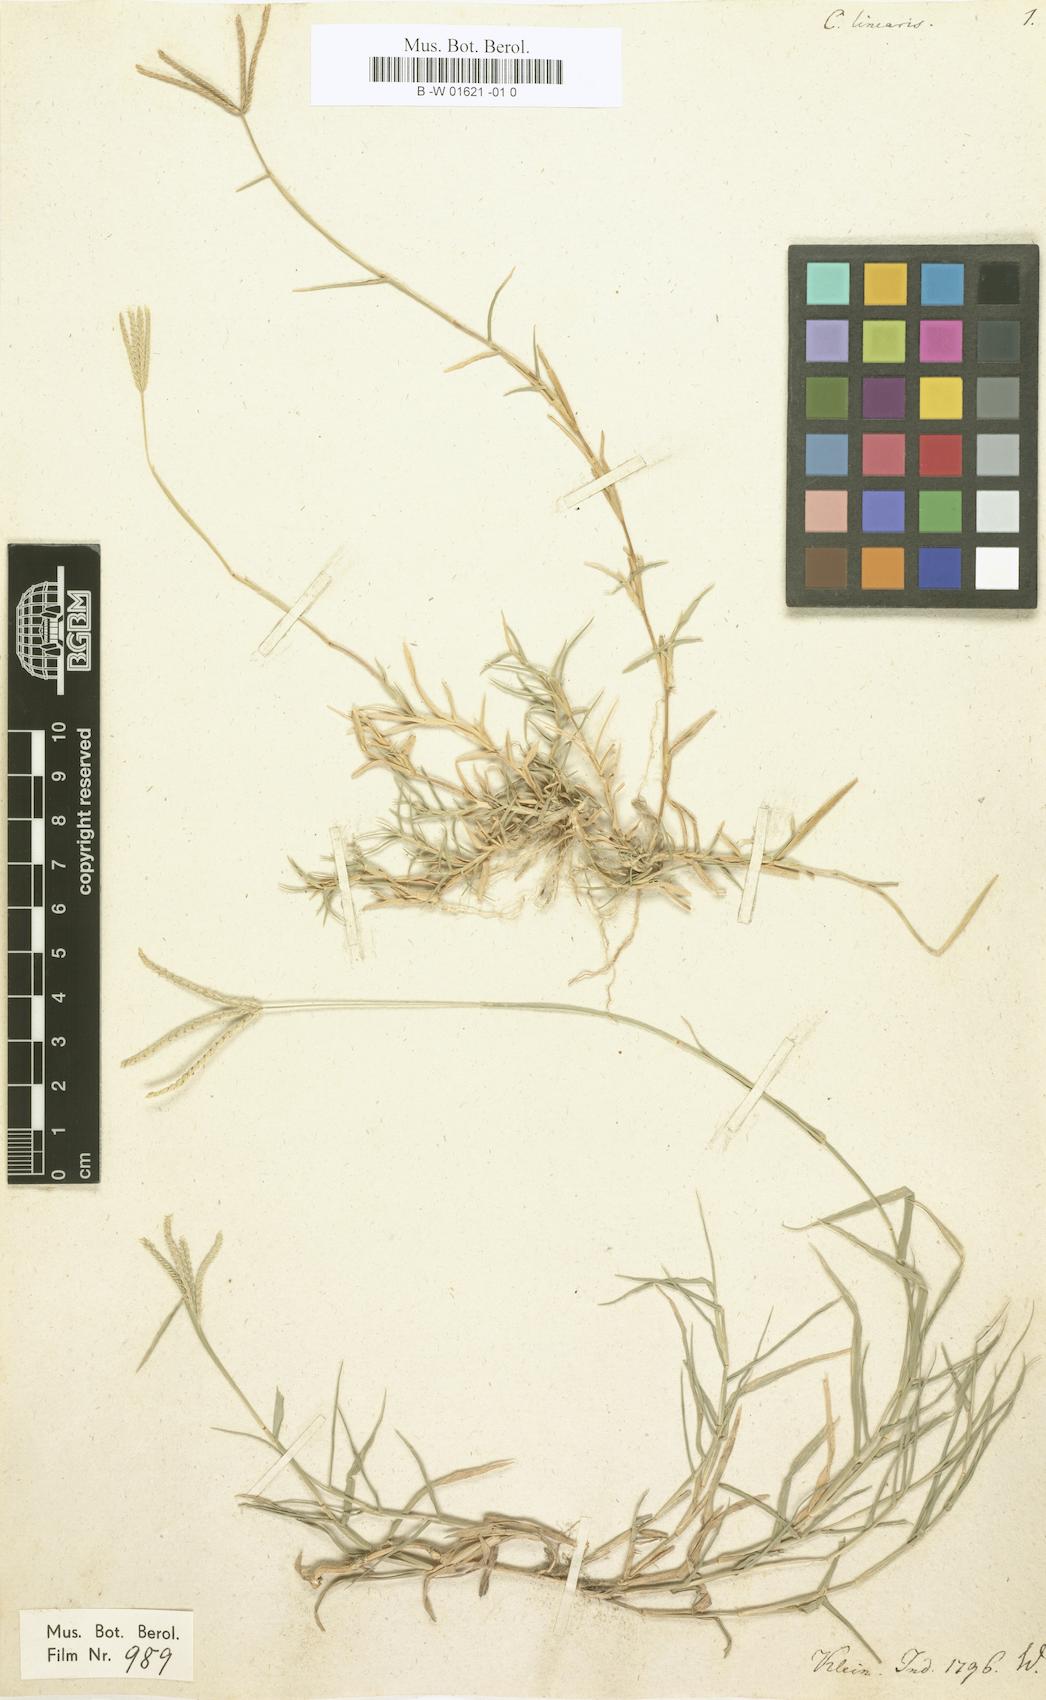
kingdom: Plantae
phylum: Tracheophyta
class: Liliopsida
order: Poales
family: Poaceae
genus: Cynodon
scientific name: Cynodon dactylon
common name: Bermuda grass
